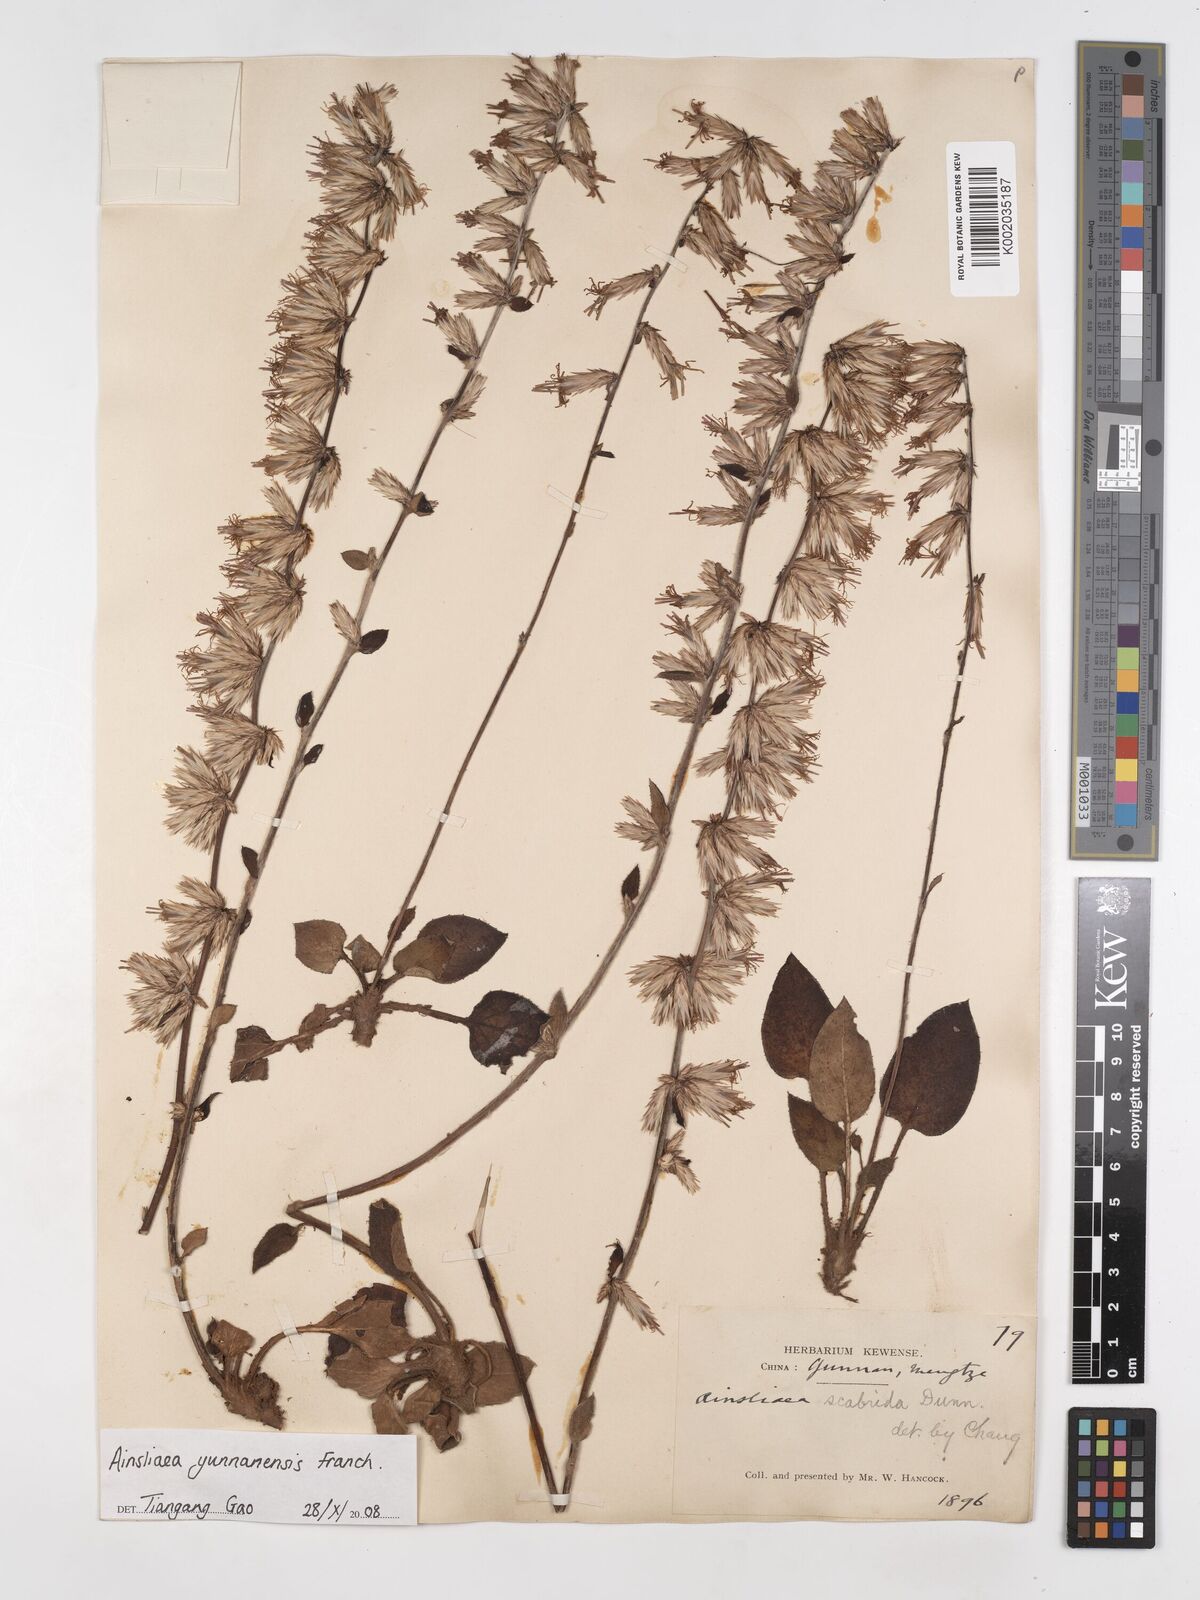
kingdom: Plantae
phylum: Tracheophyta
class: Magnoliopsida
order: Asterales
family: Asteraceae
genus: Ainsliaea
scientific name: Ainsliaea yunnanensis
